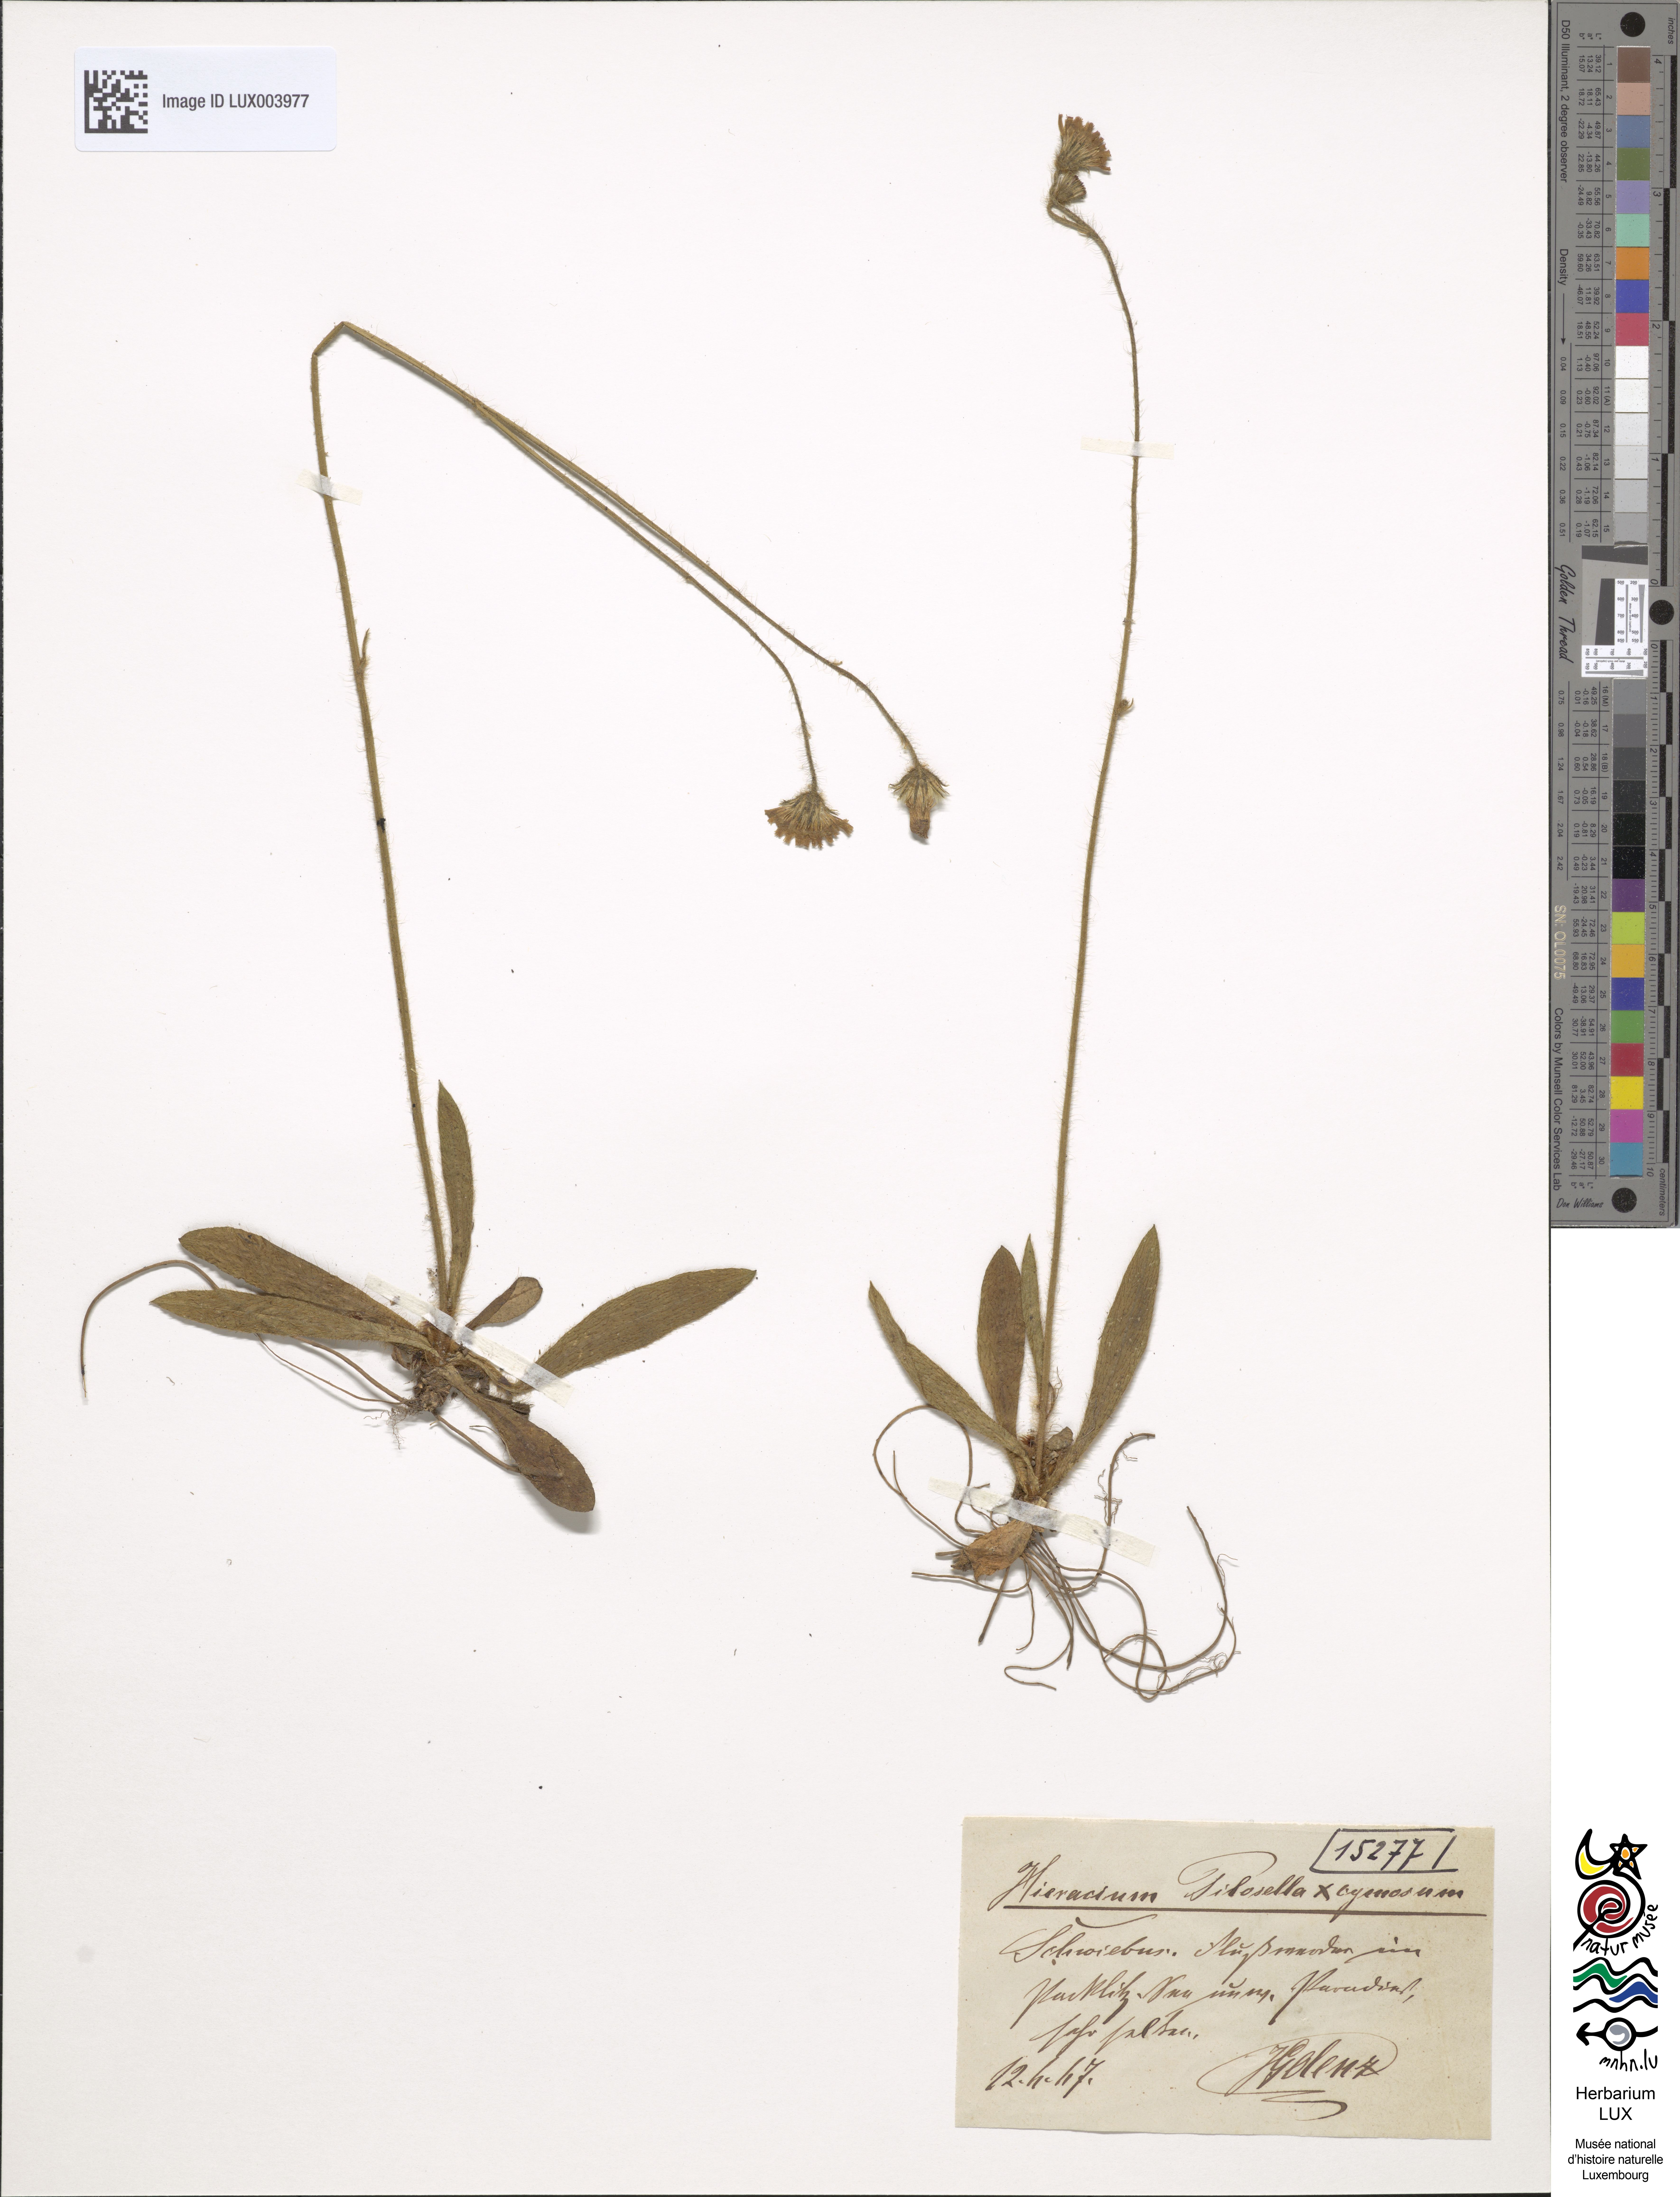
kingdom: Plantae
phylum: Tracheophyta
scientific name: Tracheophyta
